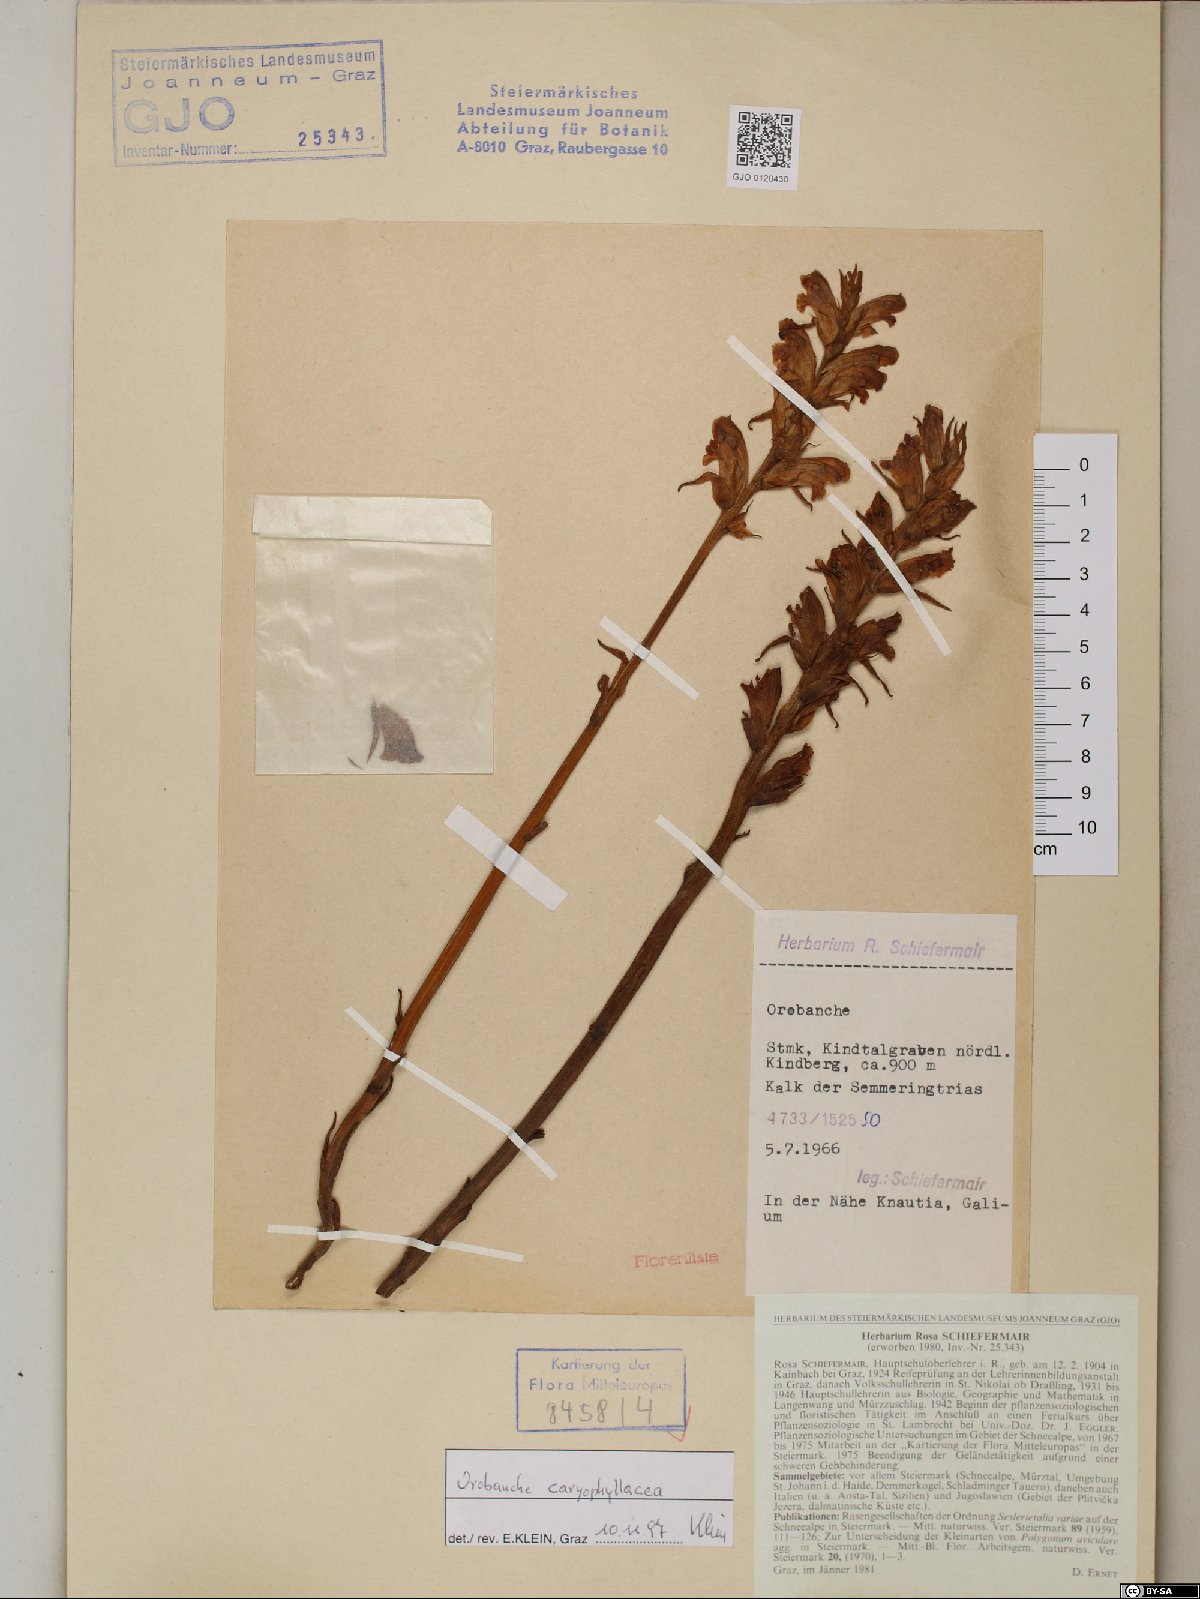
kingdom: Plantae
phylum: Tracheophyta
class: Magnoliopsida
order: Lamiales
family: Orobanchaceae
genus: Orobanche
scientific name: Orobanche caryophyllacea
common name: Bedstraw broomrape
